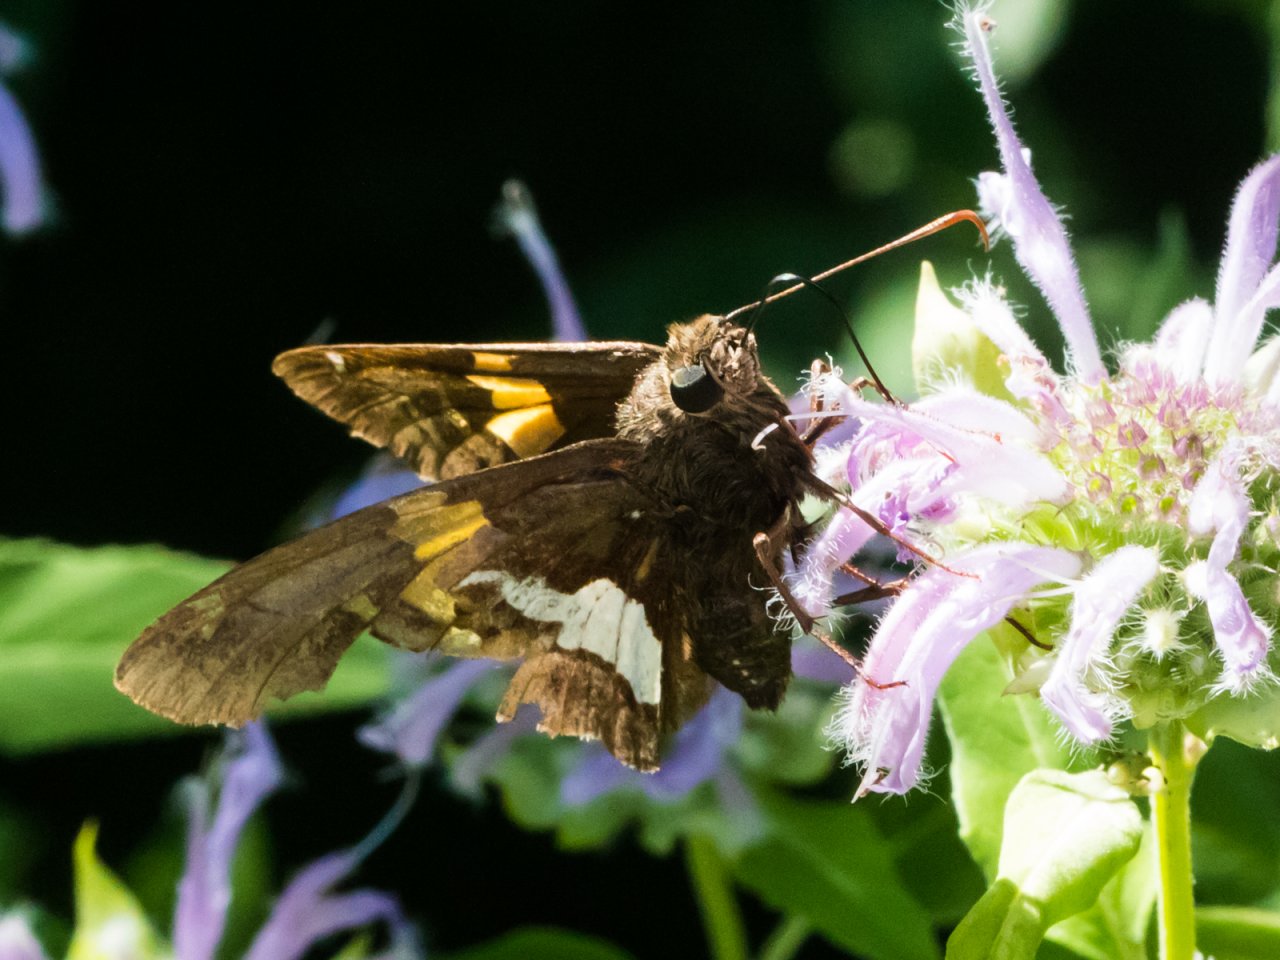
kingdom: Animalia
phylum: Arthropoda
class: Insecta
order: Lepidoptera
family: Hesperiidae
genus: Epargyreus
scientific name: Epargyreus clarus
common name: Silver-spotted Skipper
